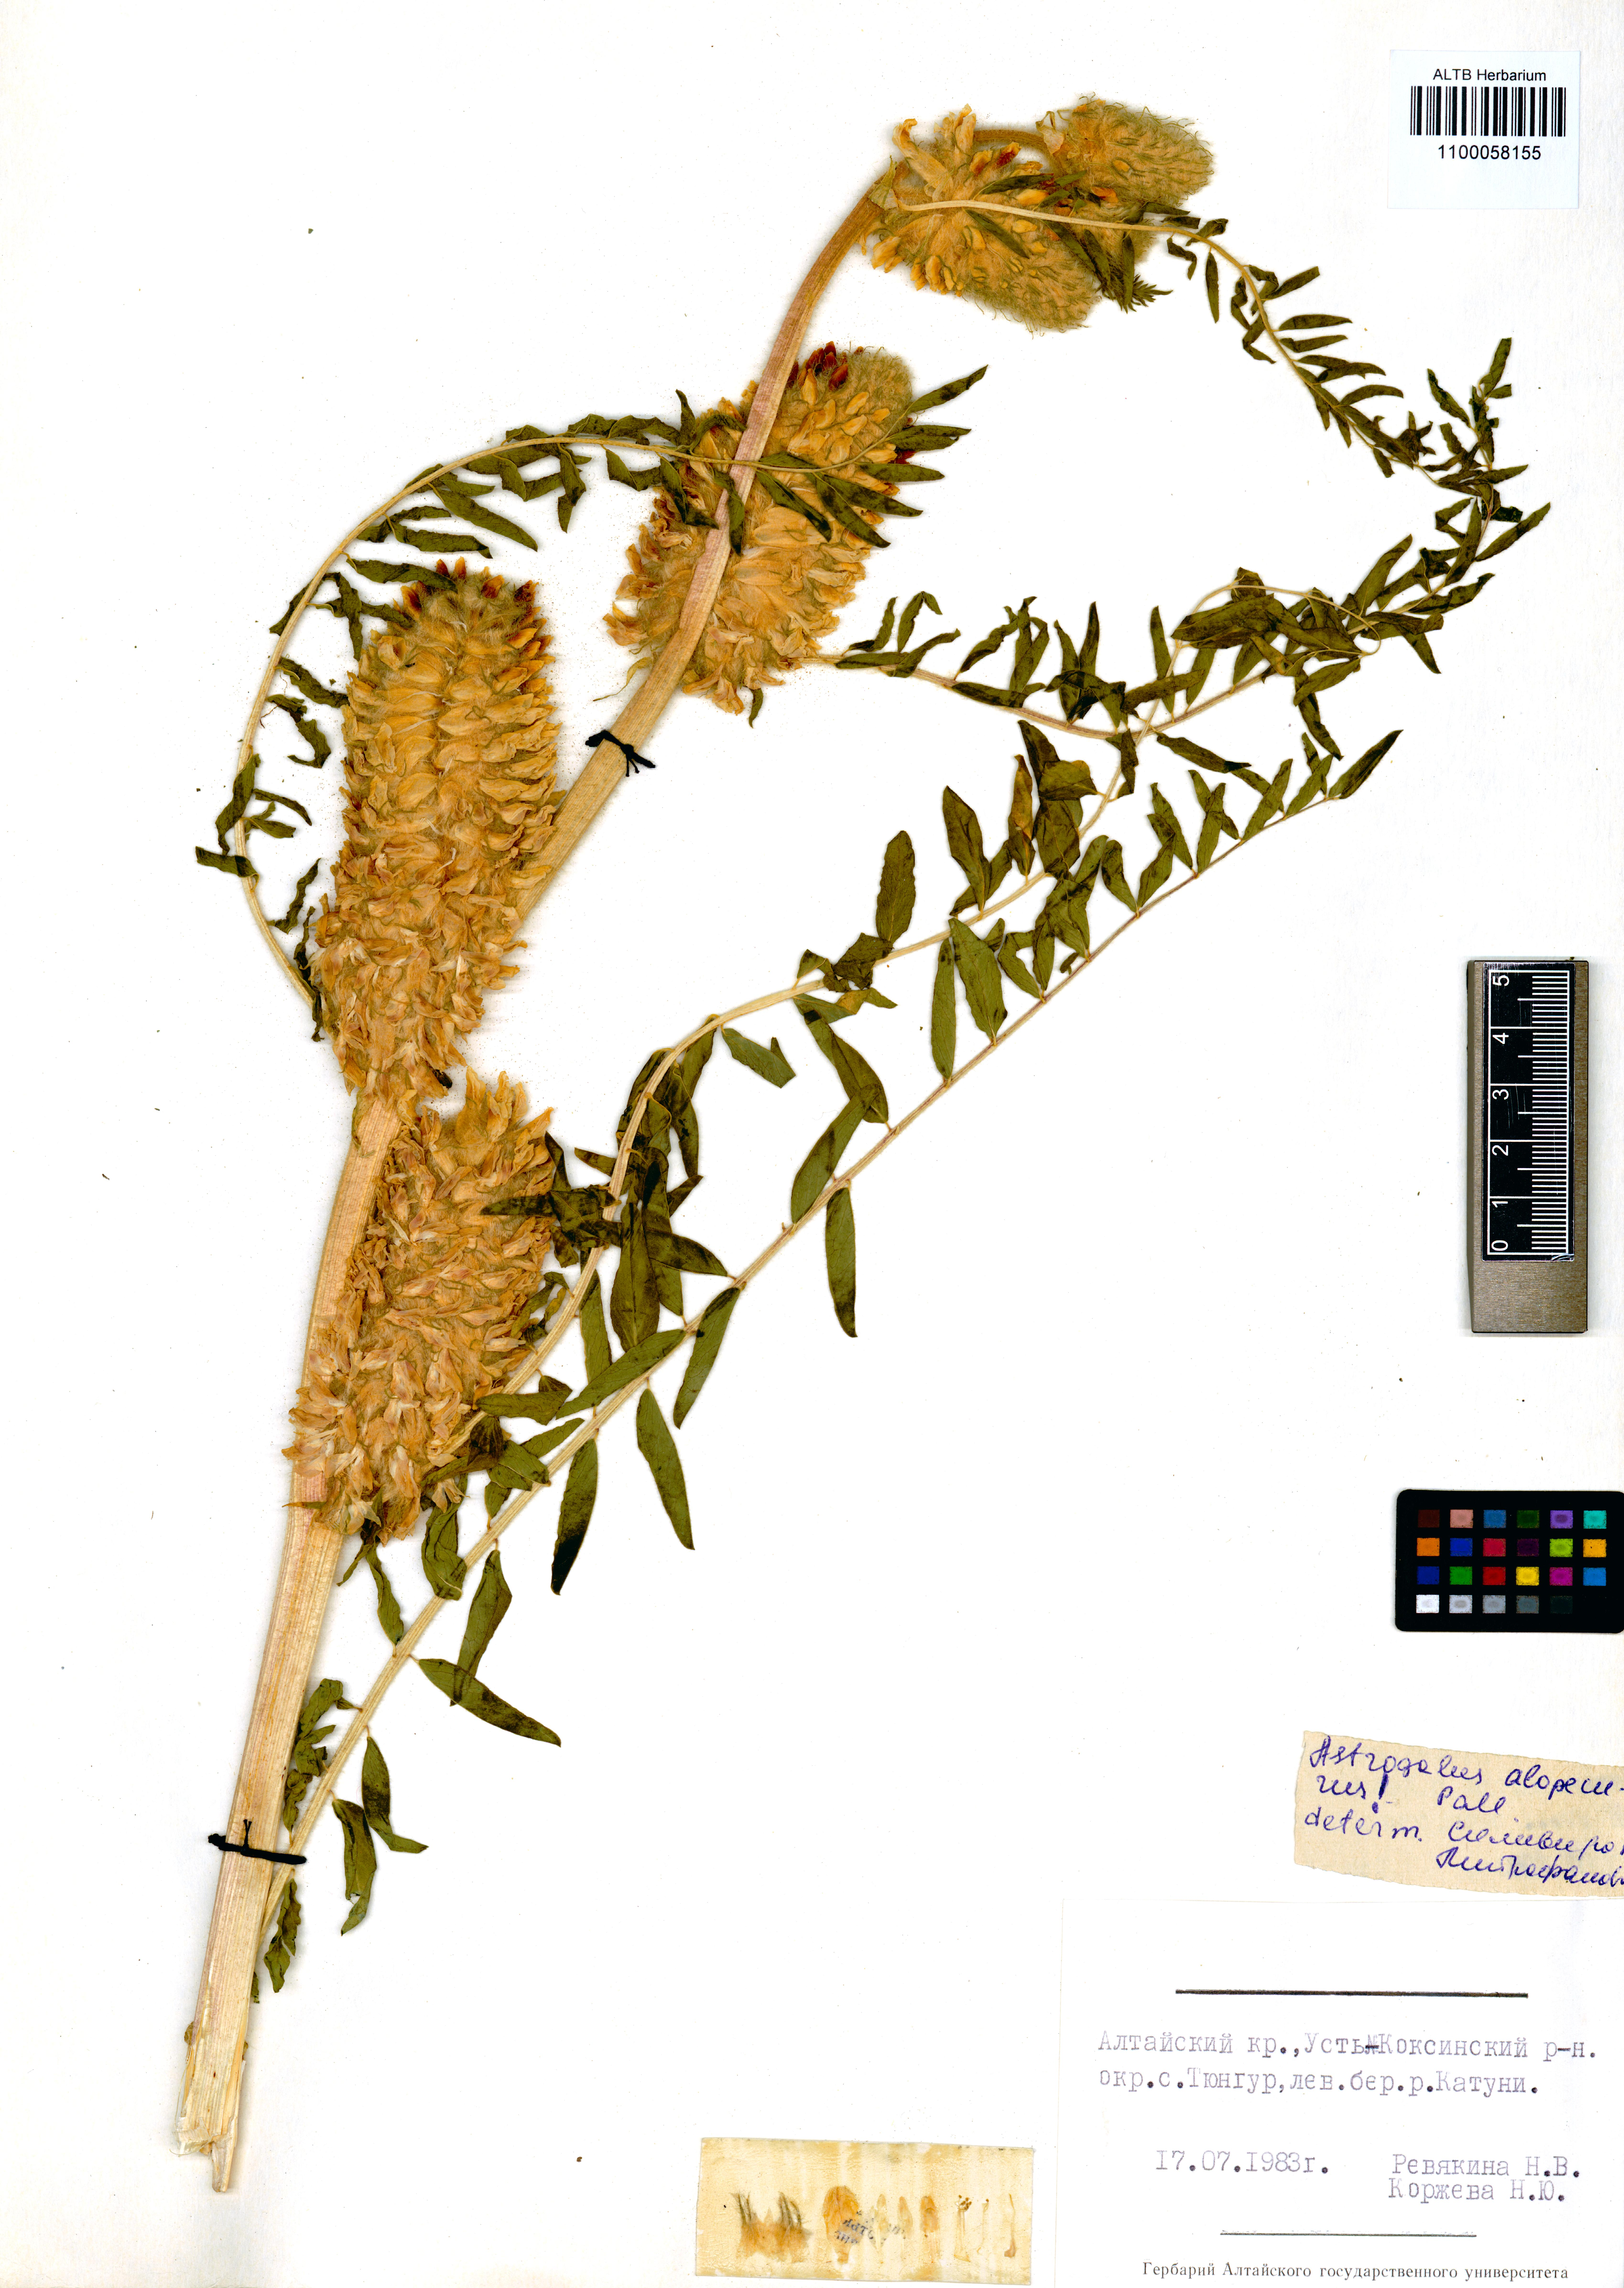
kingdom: Plantae
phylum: Tracheophyta
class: Magnoliopsida
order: Fabales
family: Fabaceae
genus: Astragalus
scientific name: Astragalus alopecurus
